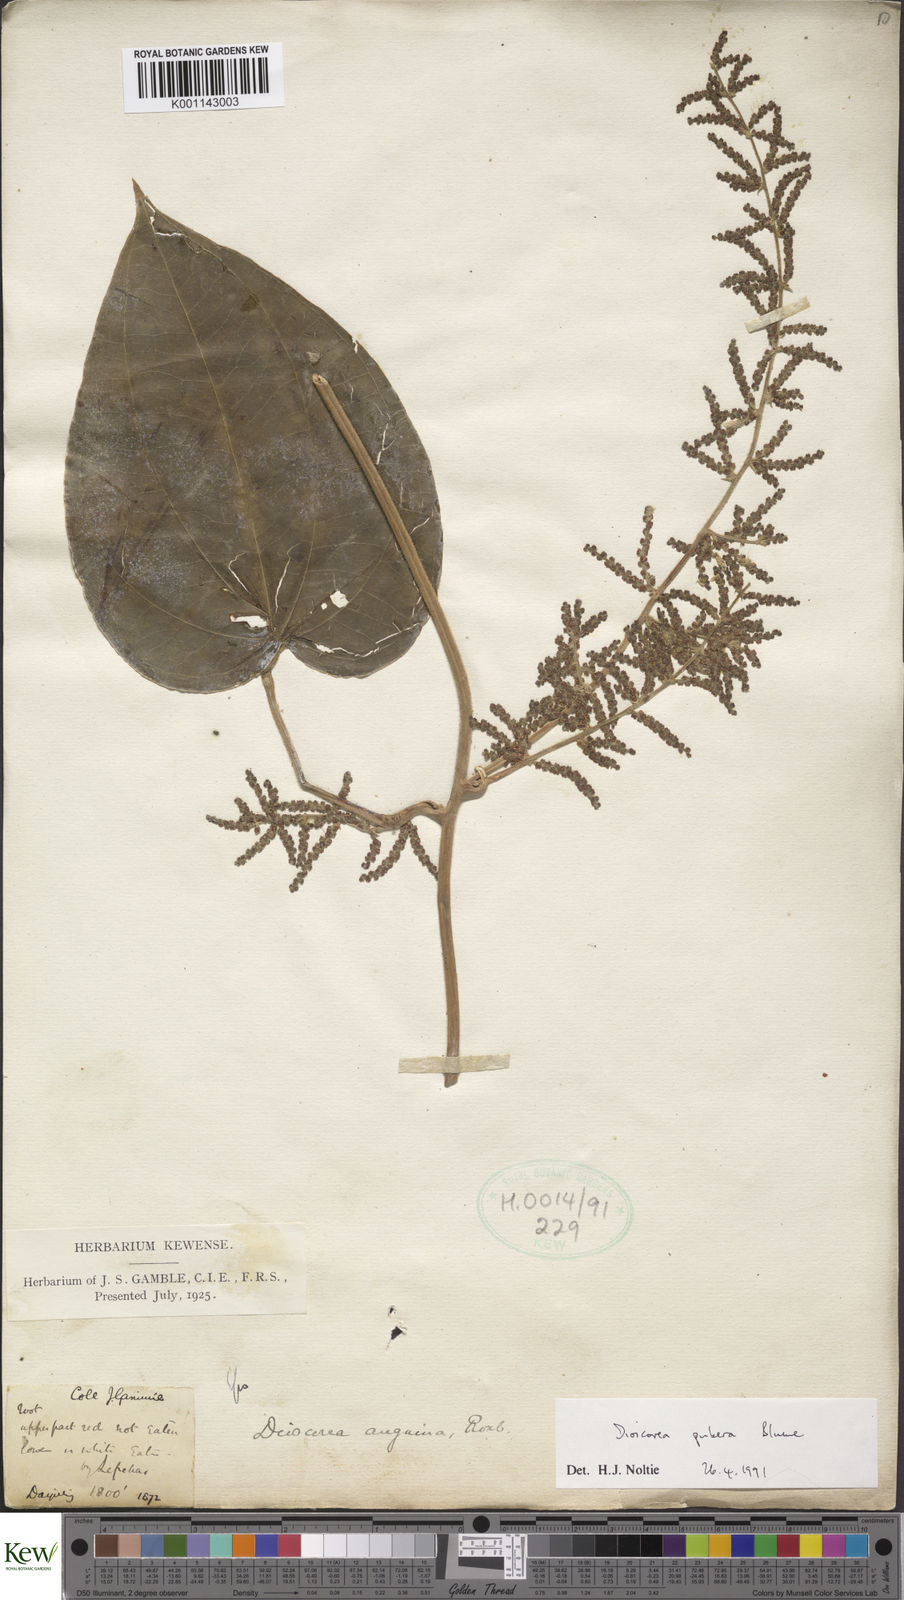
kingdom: Plantae
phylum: Tracheophyta
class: Liliopsida
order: Dioscoreales
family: Dioscoreaceae
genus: Dioscorea
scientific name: Dioscorea pubera
